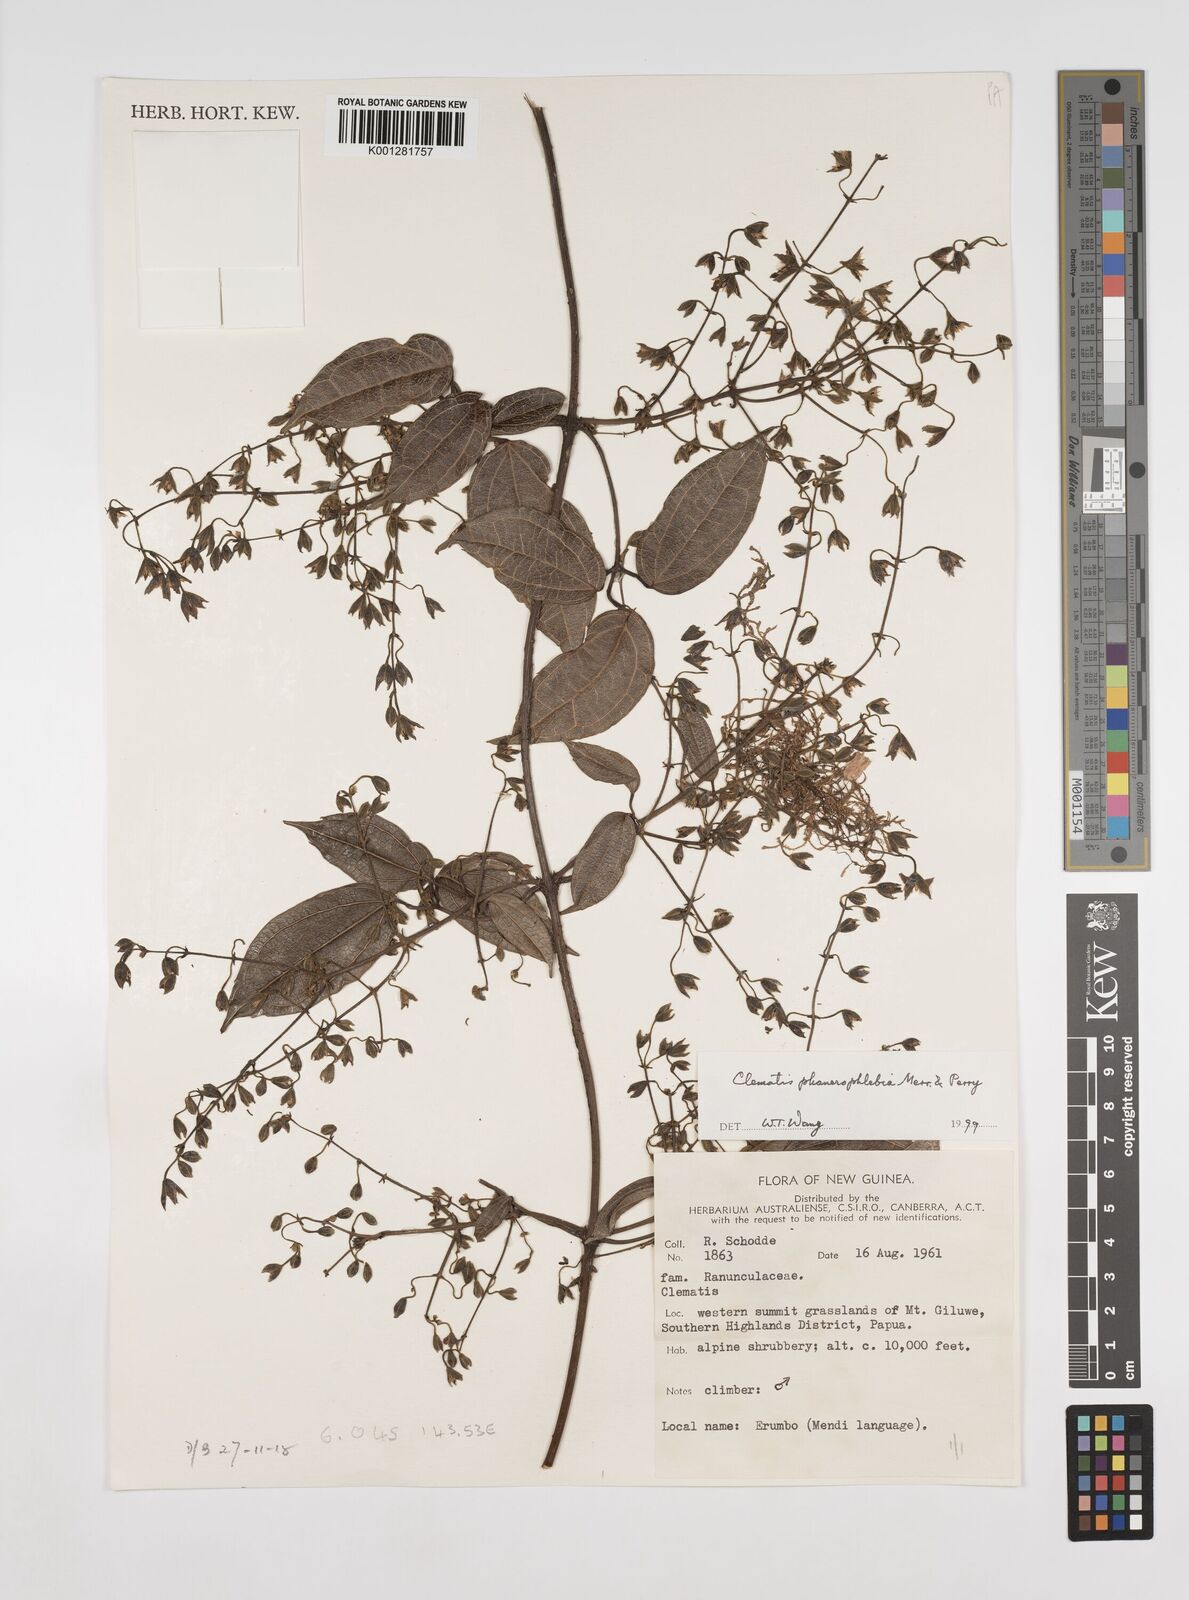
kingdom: Plantae
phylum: Tracheophyta
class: Magnoliopsida
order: Ranunculales
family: Ranunculaceae
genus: Clematis
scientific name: Clematis phanerophlebia
